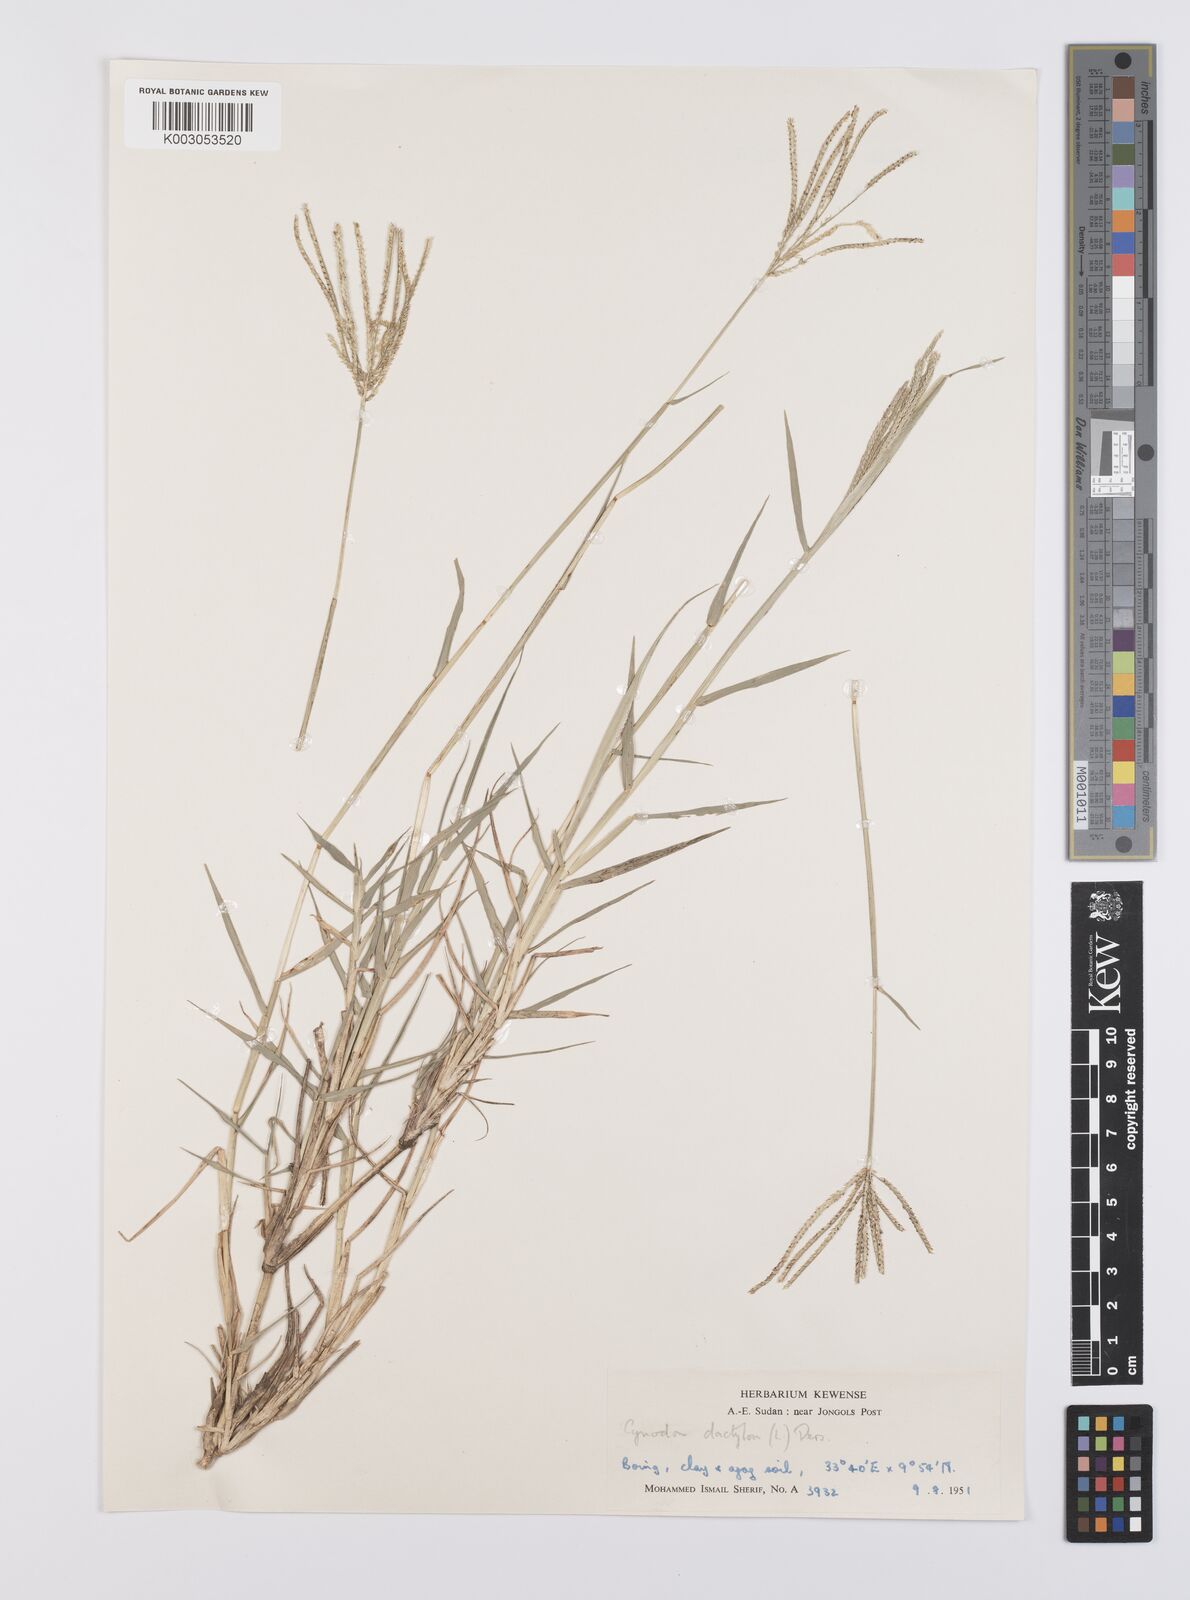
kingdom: Plantae
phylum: Tracheophyta
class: Liliopsida
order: Poales
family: Poaceae
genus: Cynodon
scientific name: Cynodon dactylon
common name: Bermuda grass
